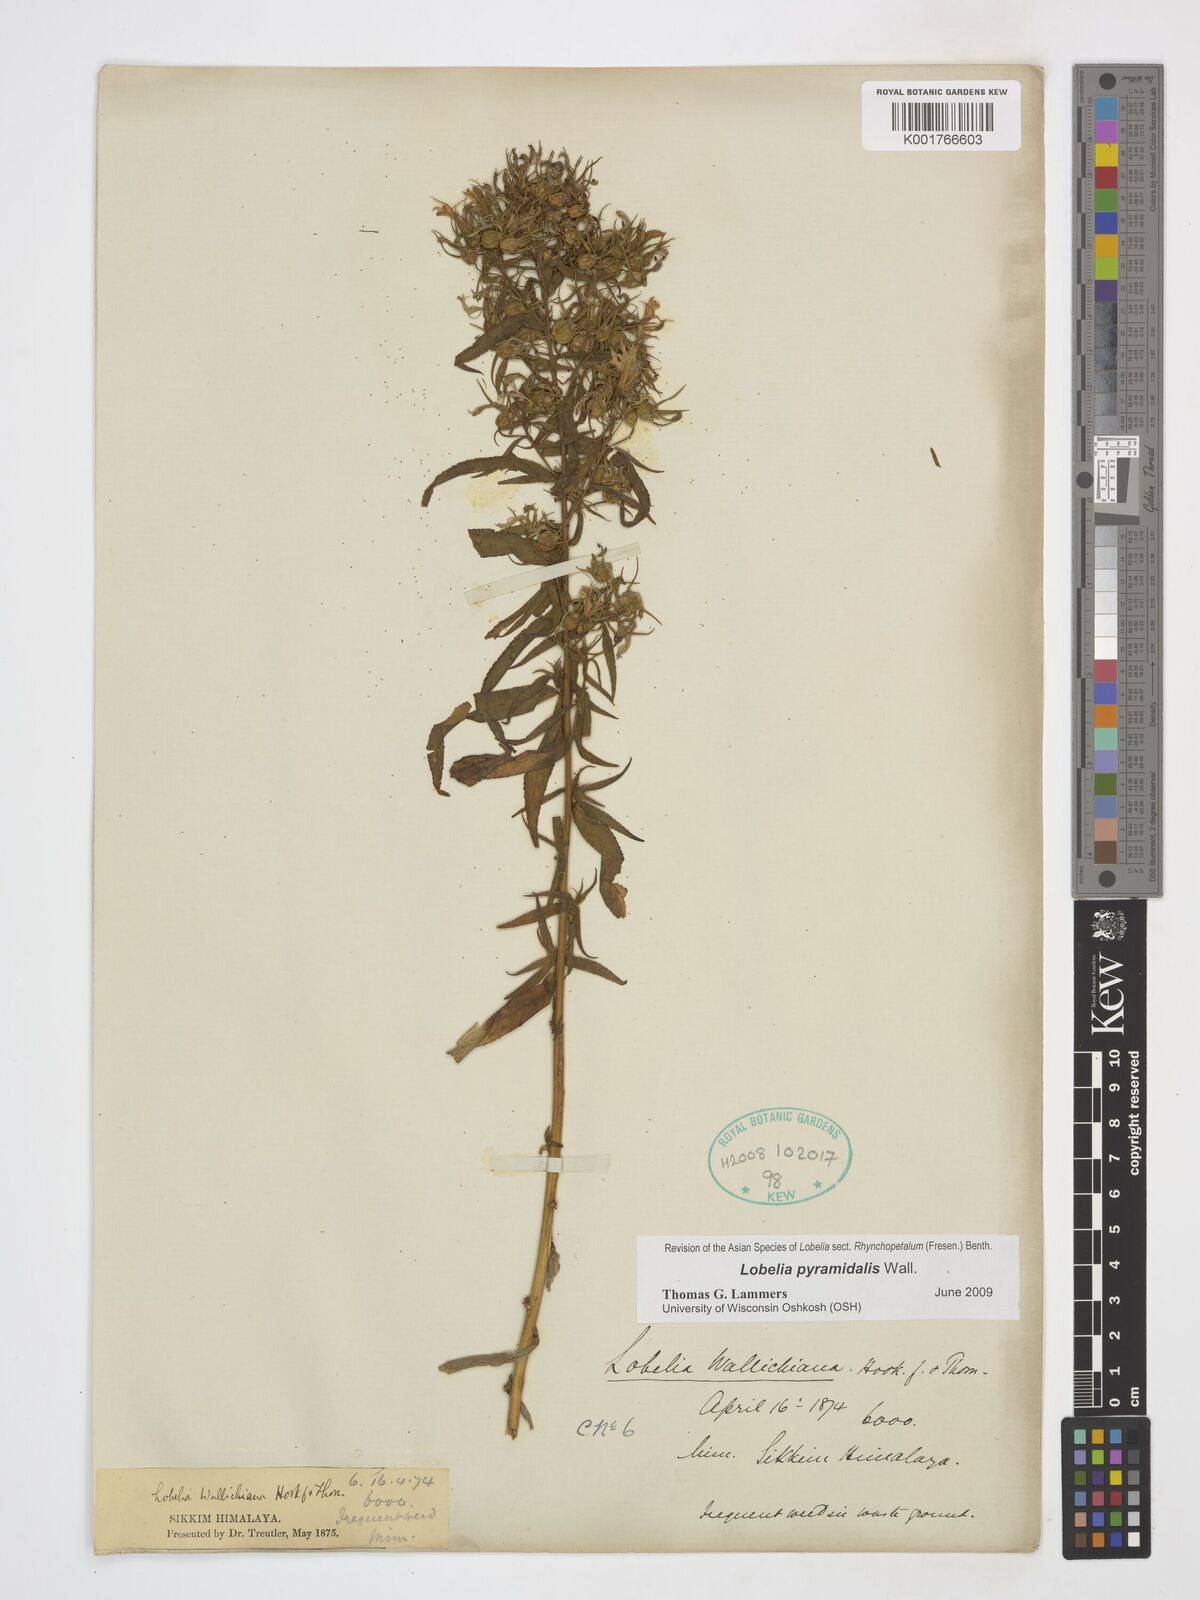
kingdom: Plantae
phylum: Tracheophyta
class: Magnoliopsida
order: Asterales
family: Campanulaceae
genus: Lobelia
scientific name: Lobelia pyramidalis
